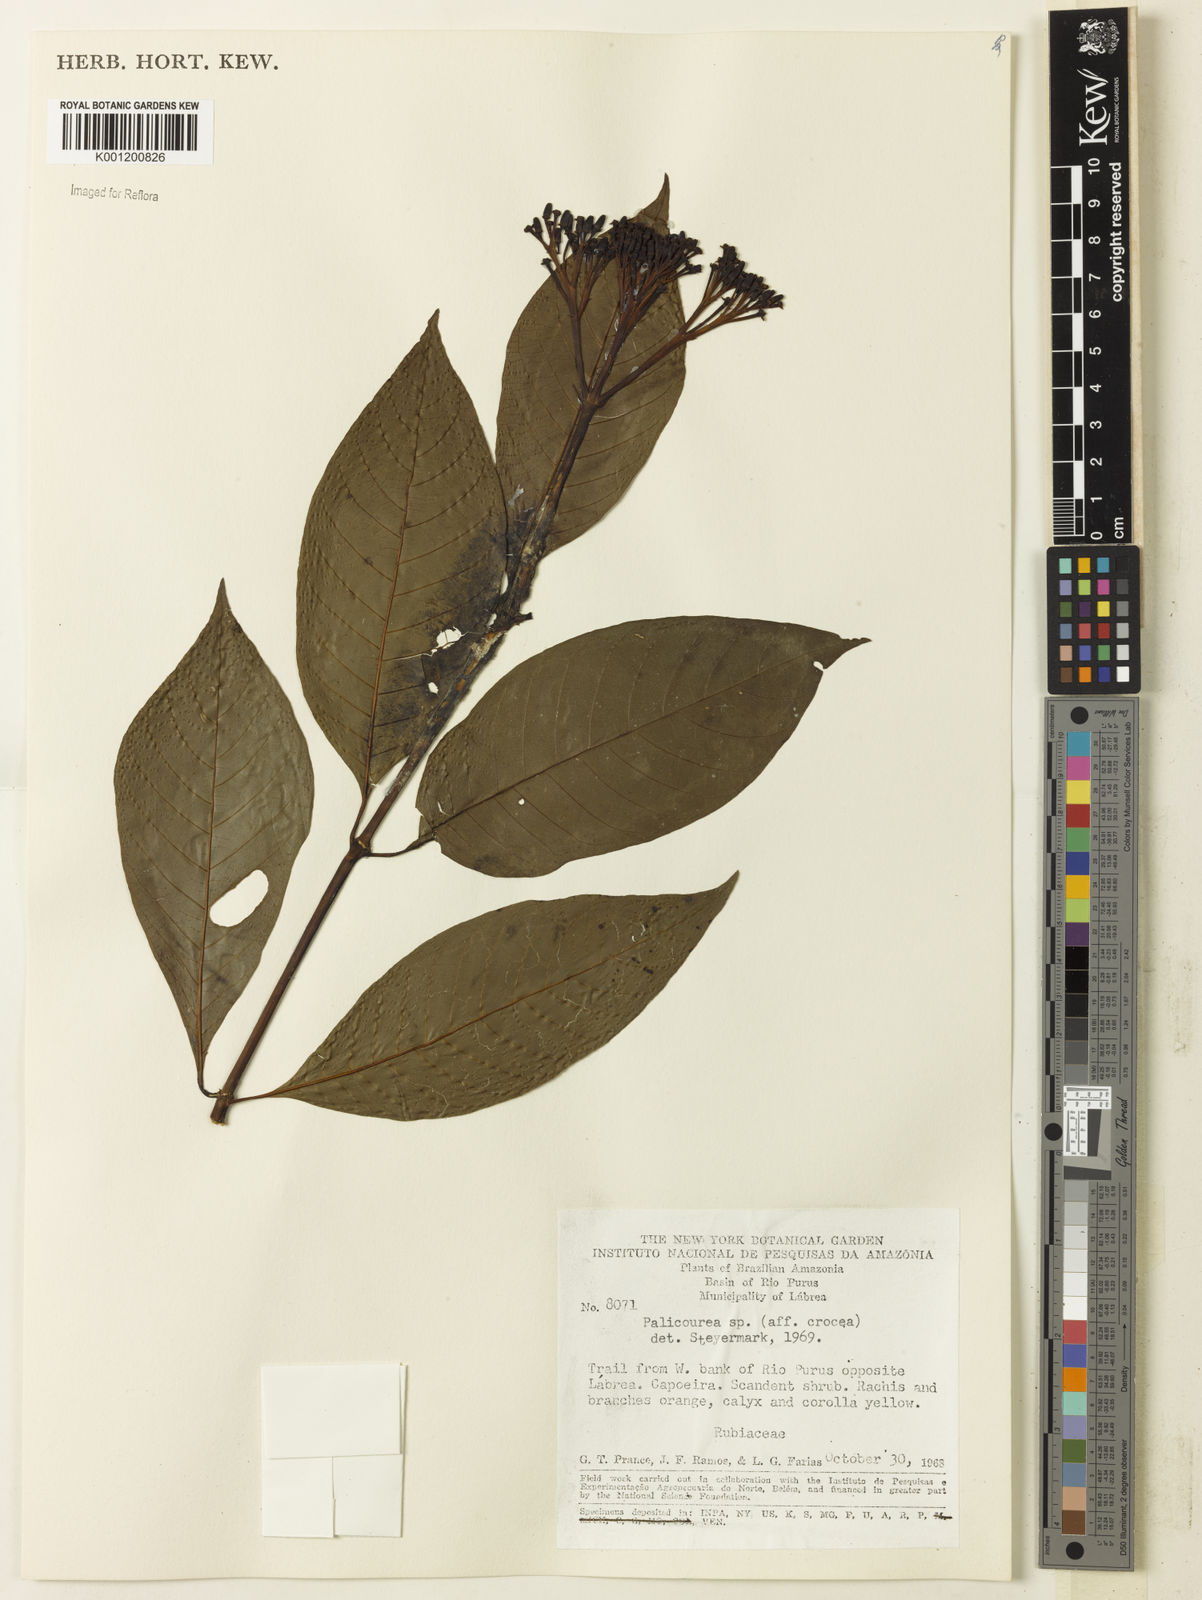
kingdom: Plantae
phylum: Tracheophyta
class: Magnoliopsida
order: Gentianales
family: Rubiaceae
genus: Palicourea
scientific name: Palicourea crocea
